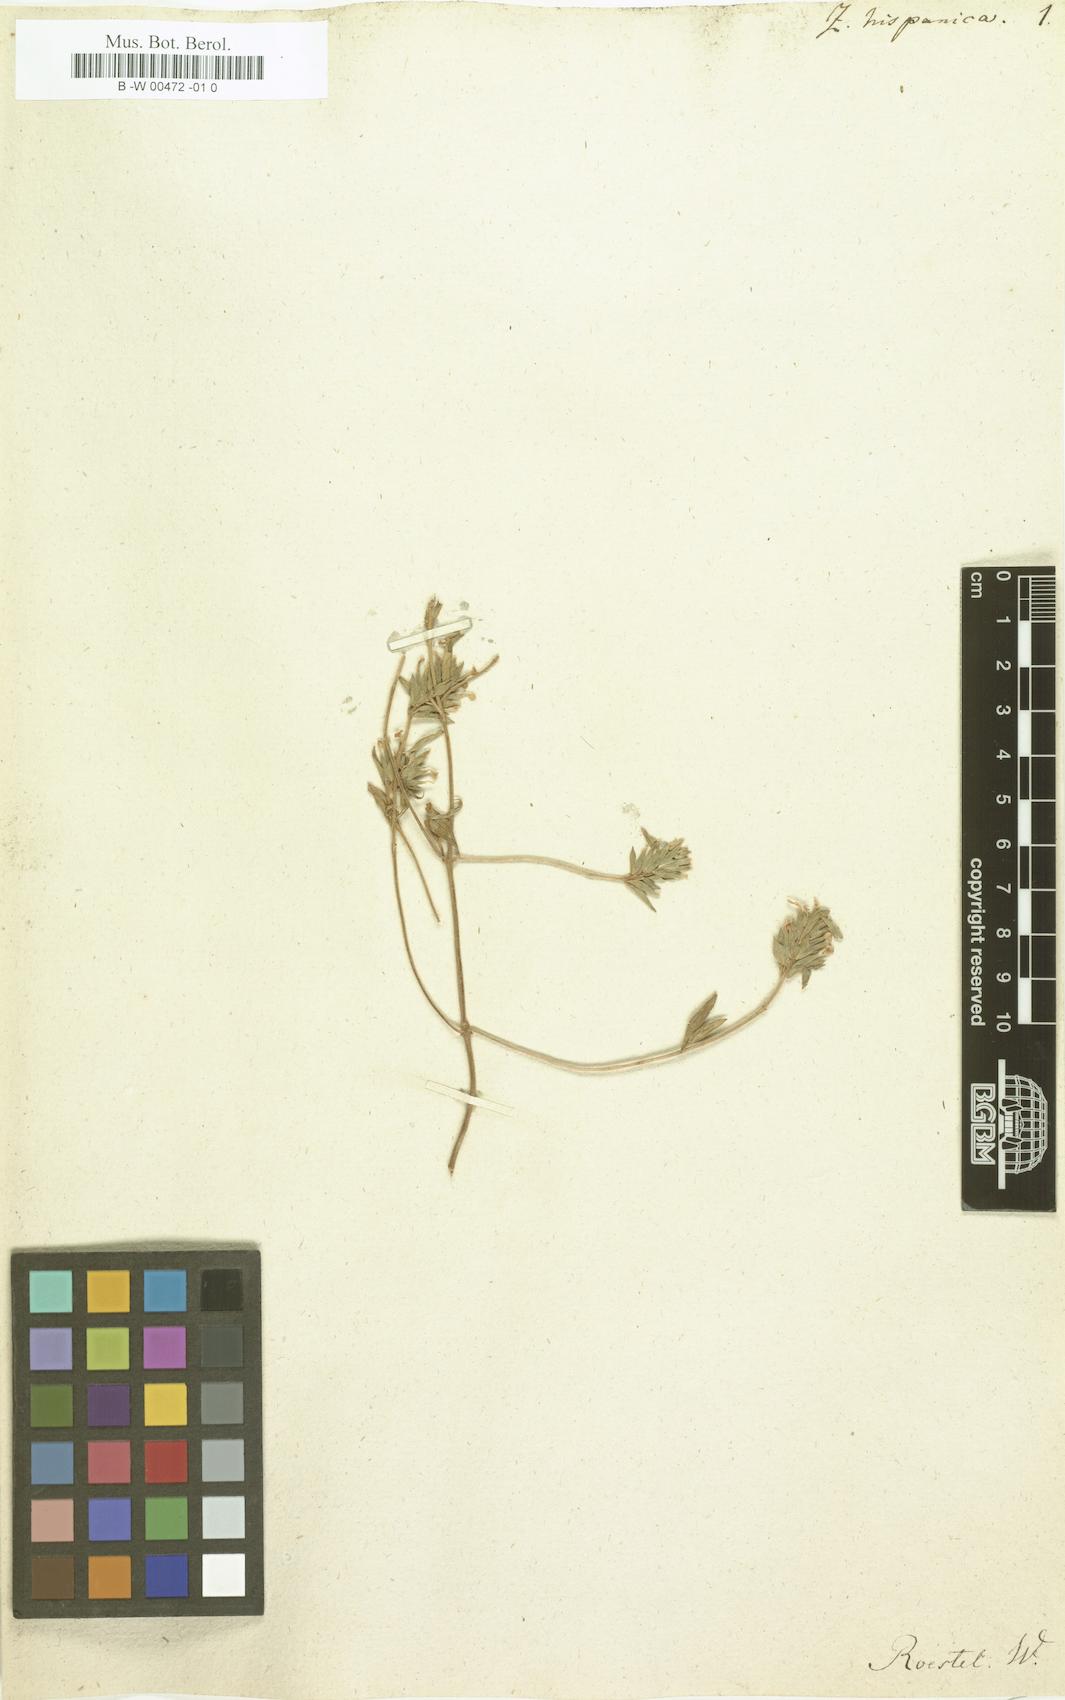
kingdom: Plantae
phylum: Tracheophyta
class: Magnoliopsida
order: Lamiales
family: Lamiaceae
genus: Ziziphora
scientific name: Ziziphora hispanica
